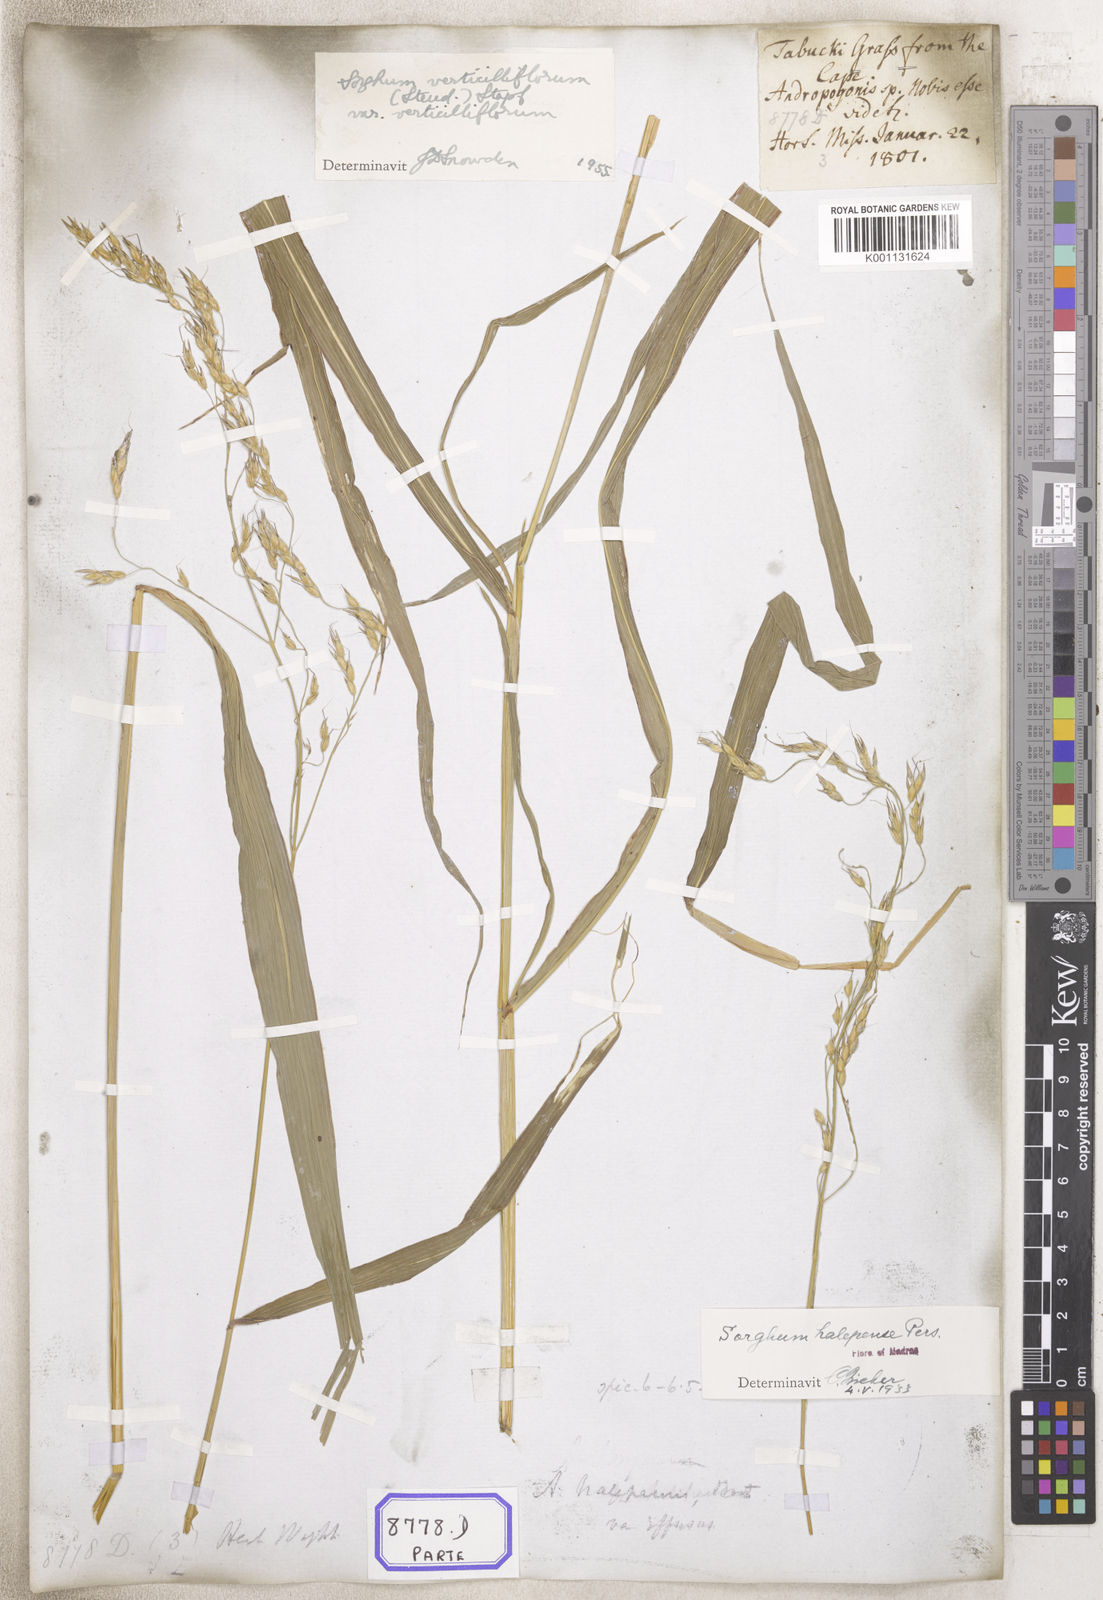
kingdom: Plantae
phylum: Tracheophyta
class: Liliopsida
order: Poales
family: Poaceae
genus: Sorghum
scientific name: Sorghum halepense
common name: Johnson-grass
